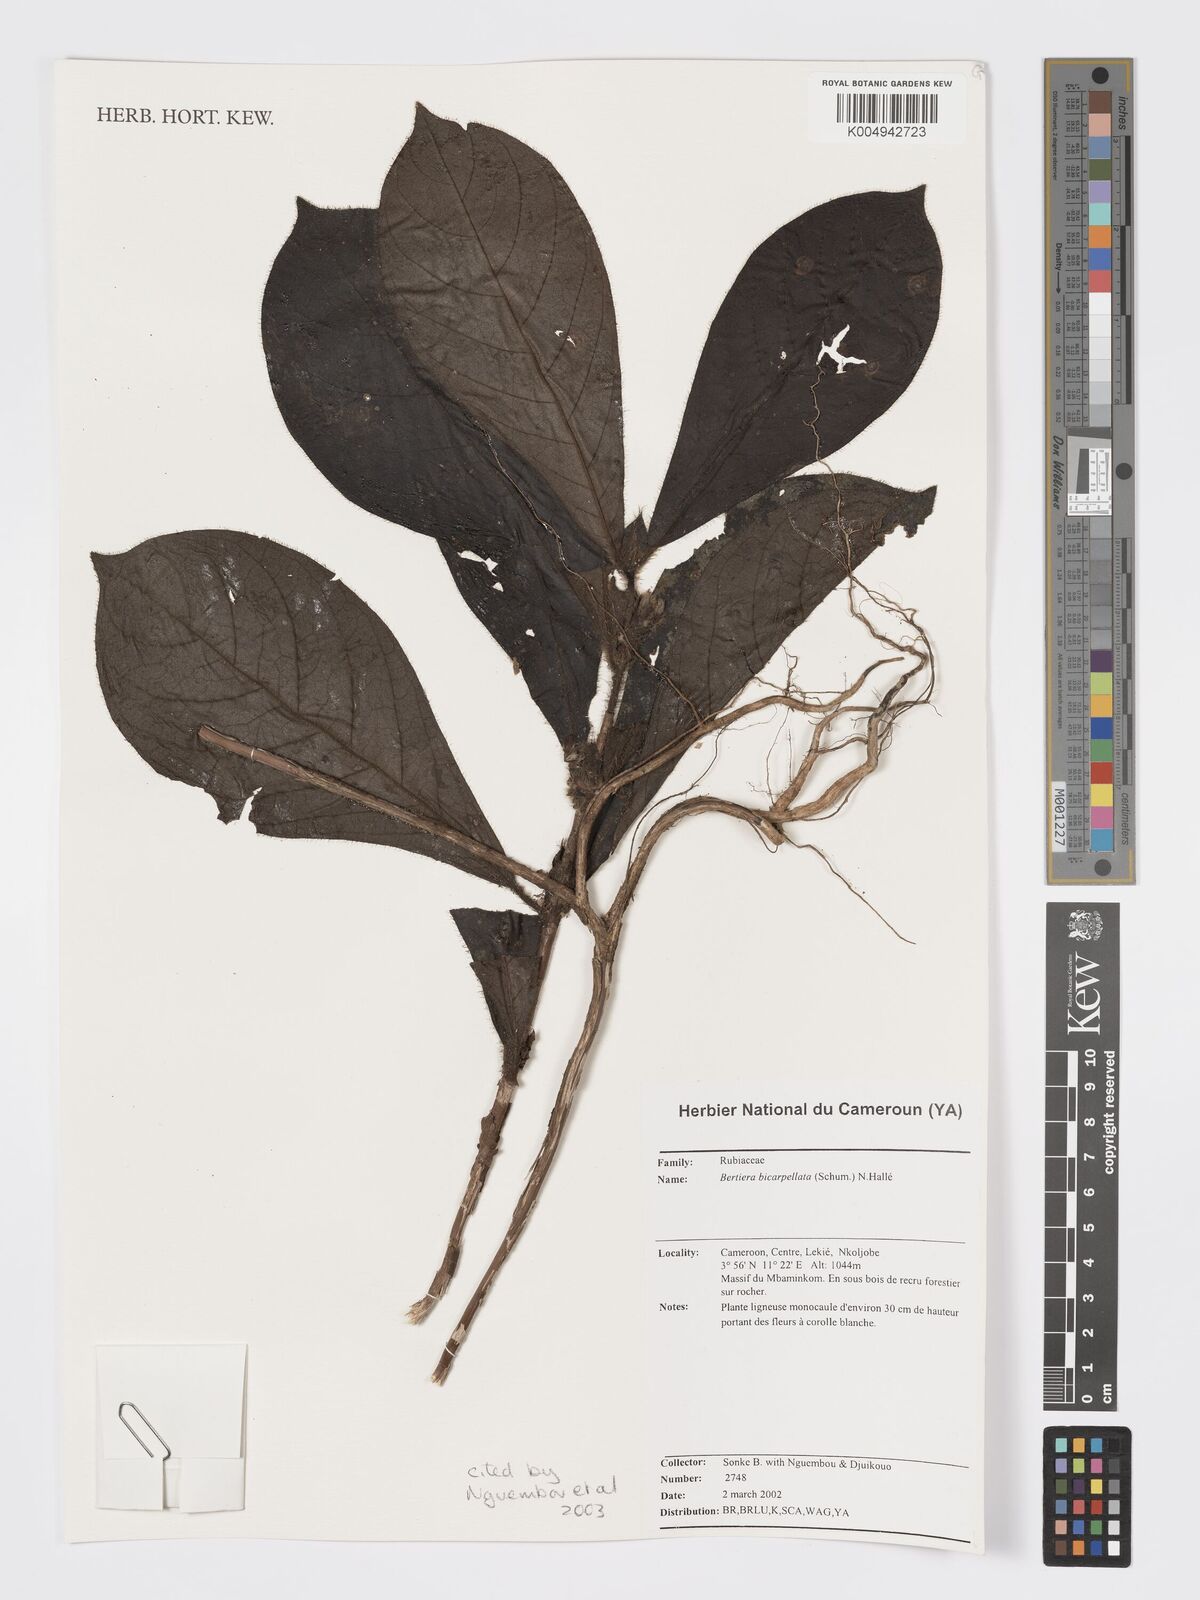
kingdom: Plantae
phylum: Tracheophyta
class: Magnoliopsida
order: Gentianales
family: Rubiaceae
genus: Bertiera
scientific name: Bertiera bicarpellata
